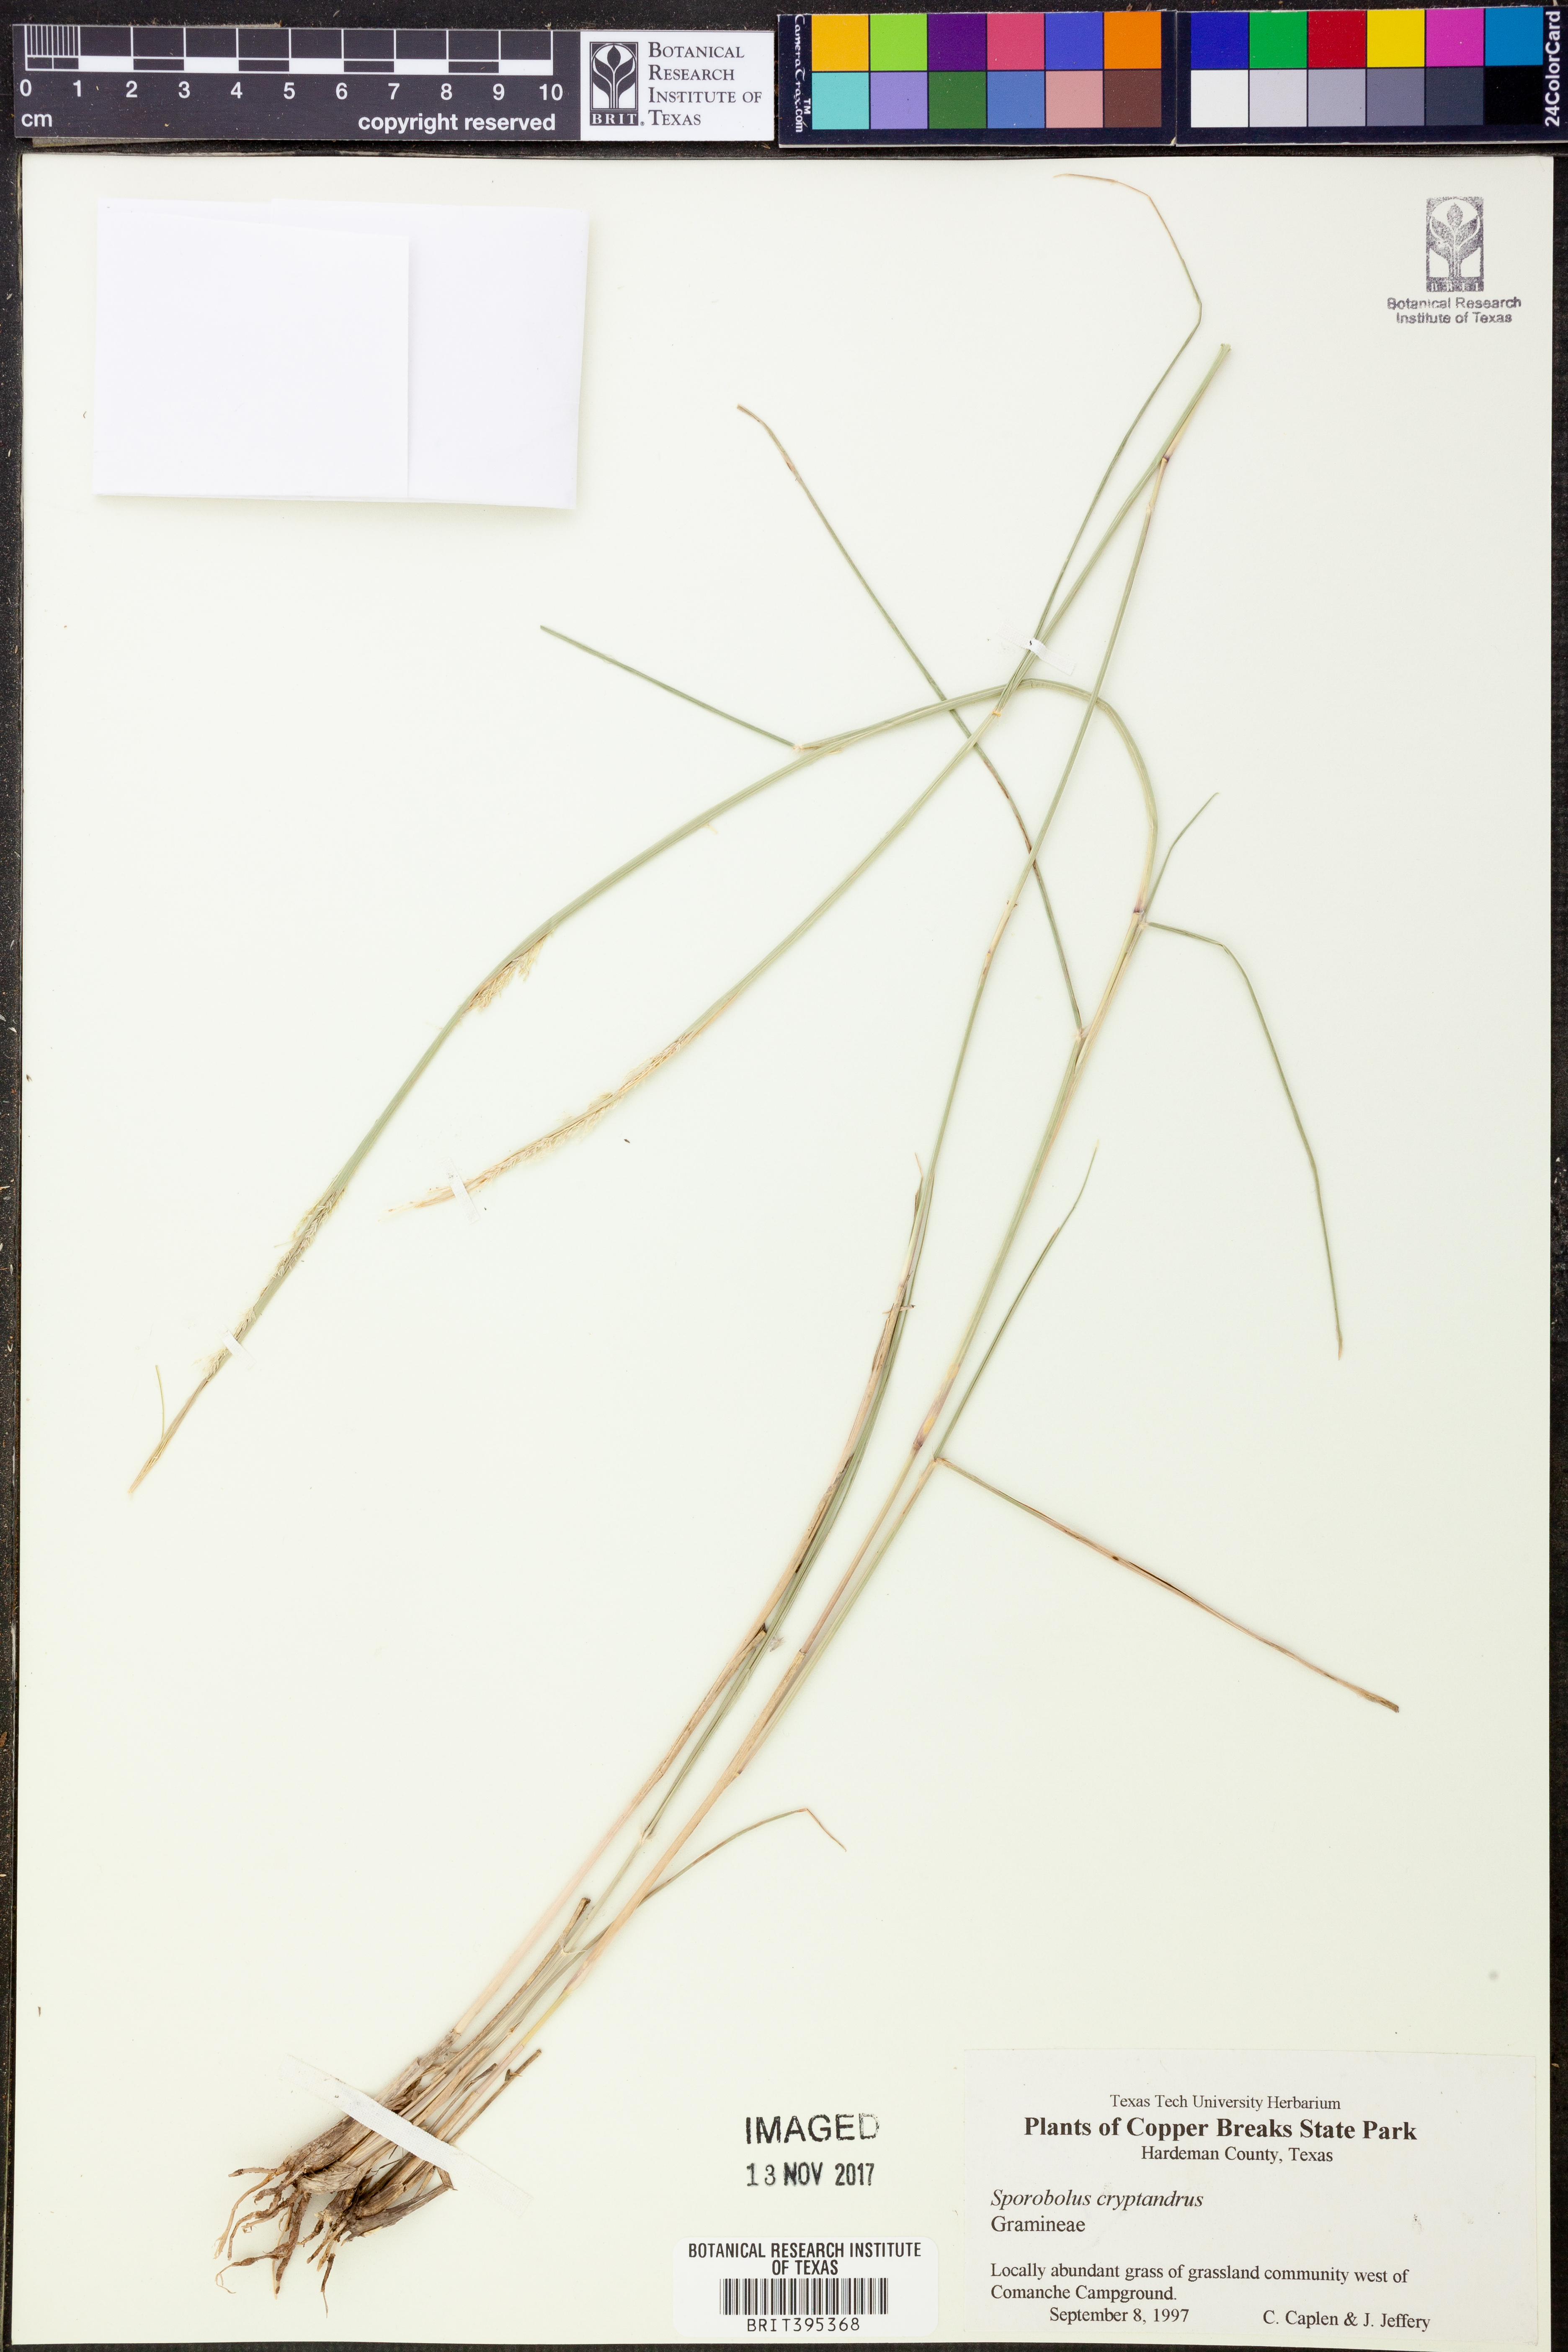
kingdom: Plantae
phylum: Tracheophyta
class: Liliopsida
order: Poales
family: Poaceae
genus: Sporobolus
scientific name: Sporobolus cryptandrus
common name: Sand dropseed
